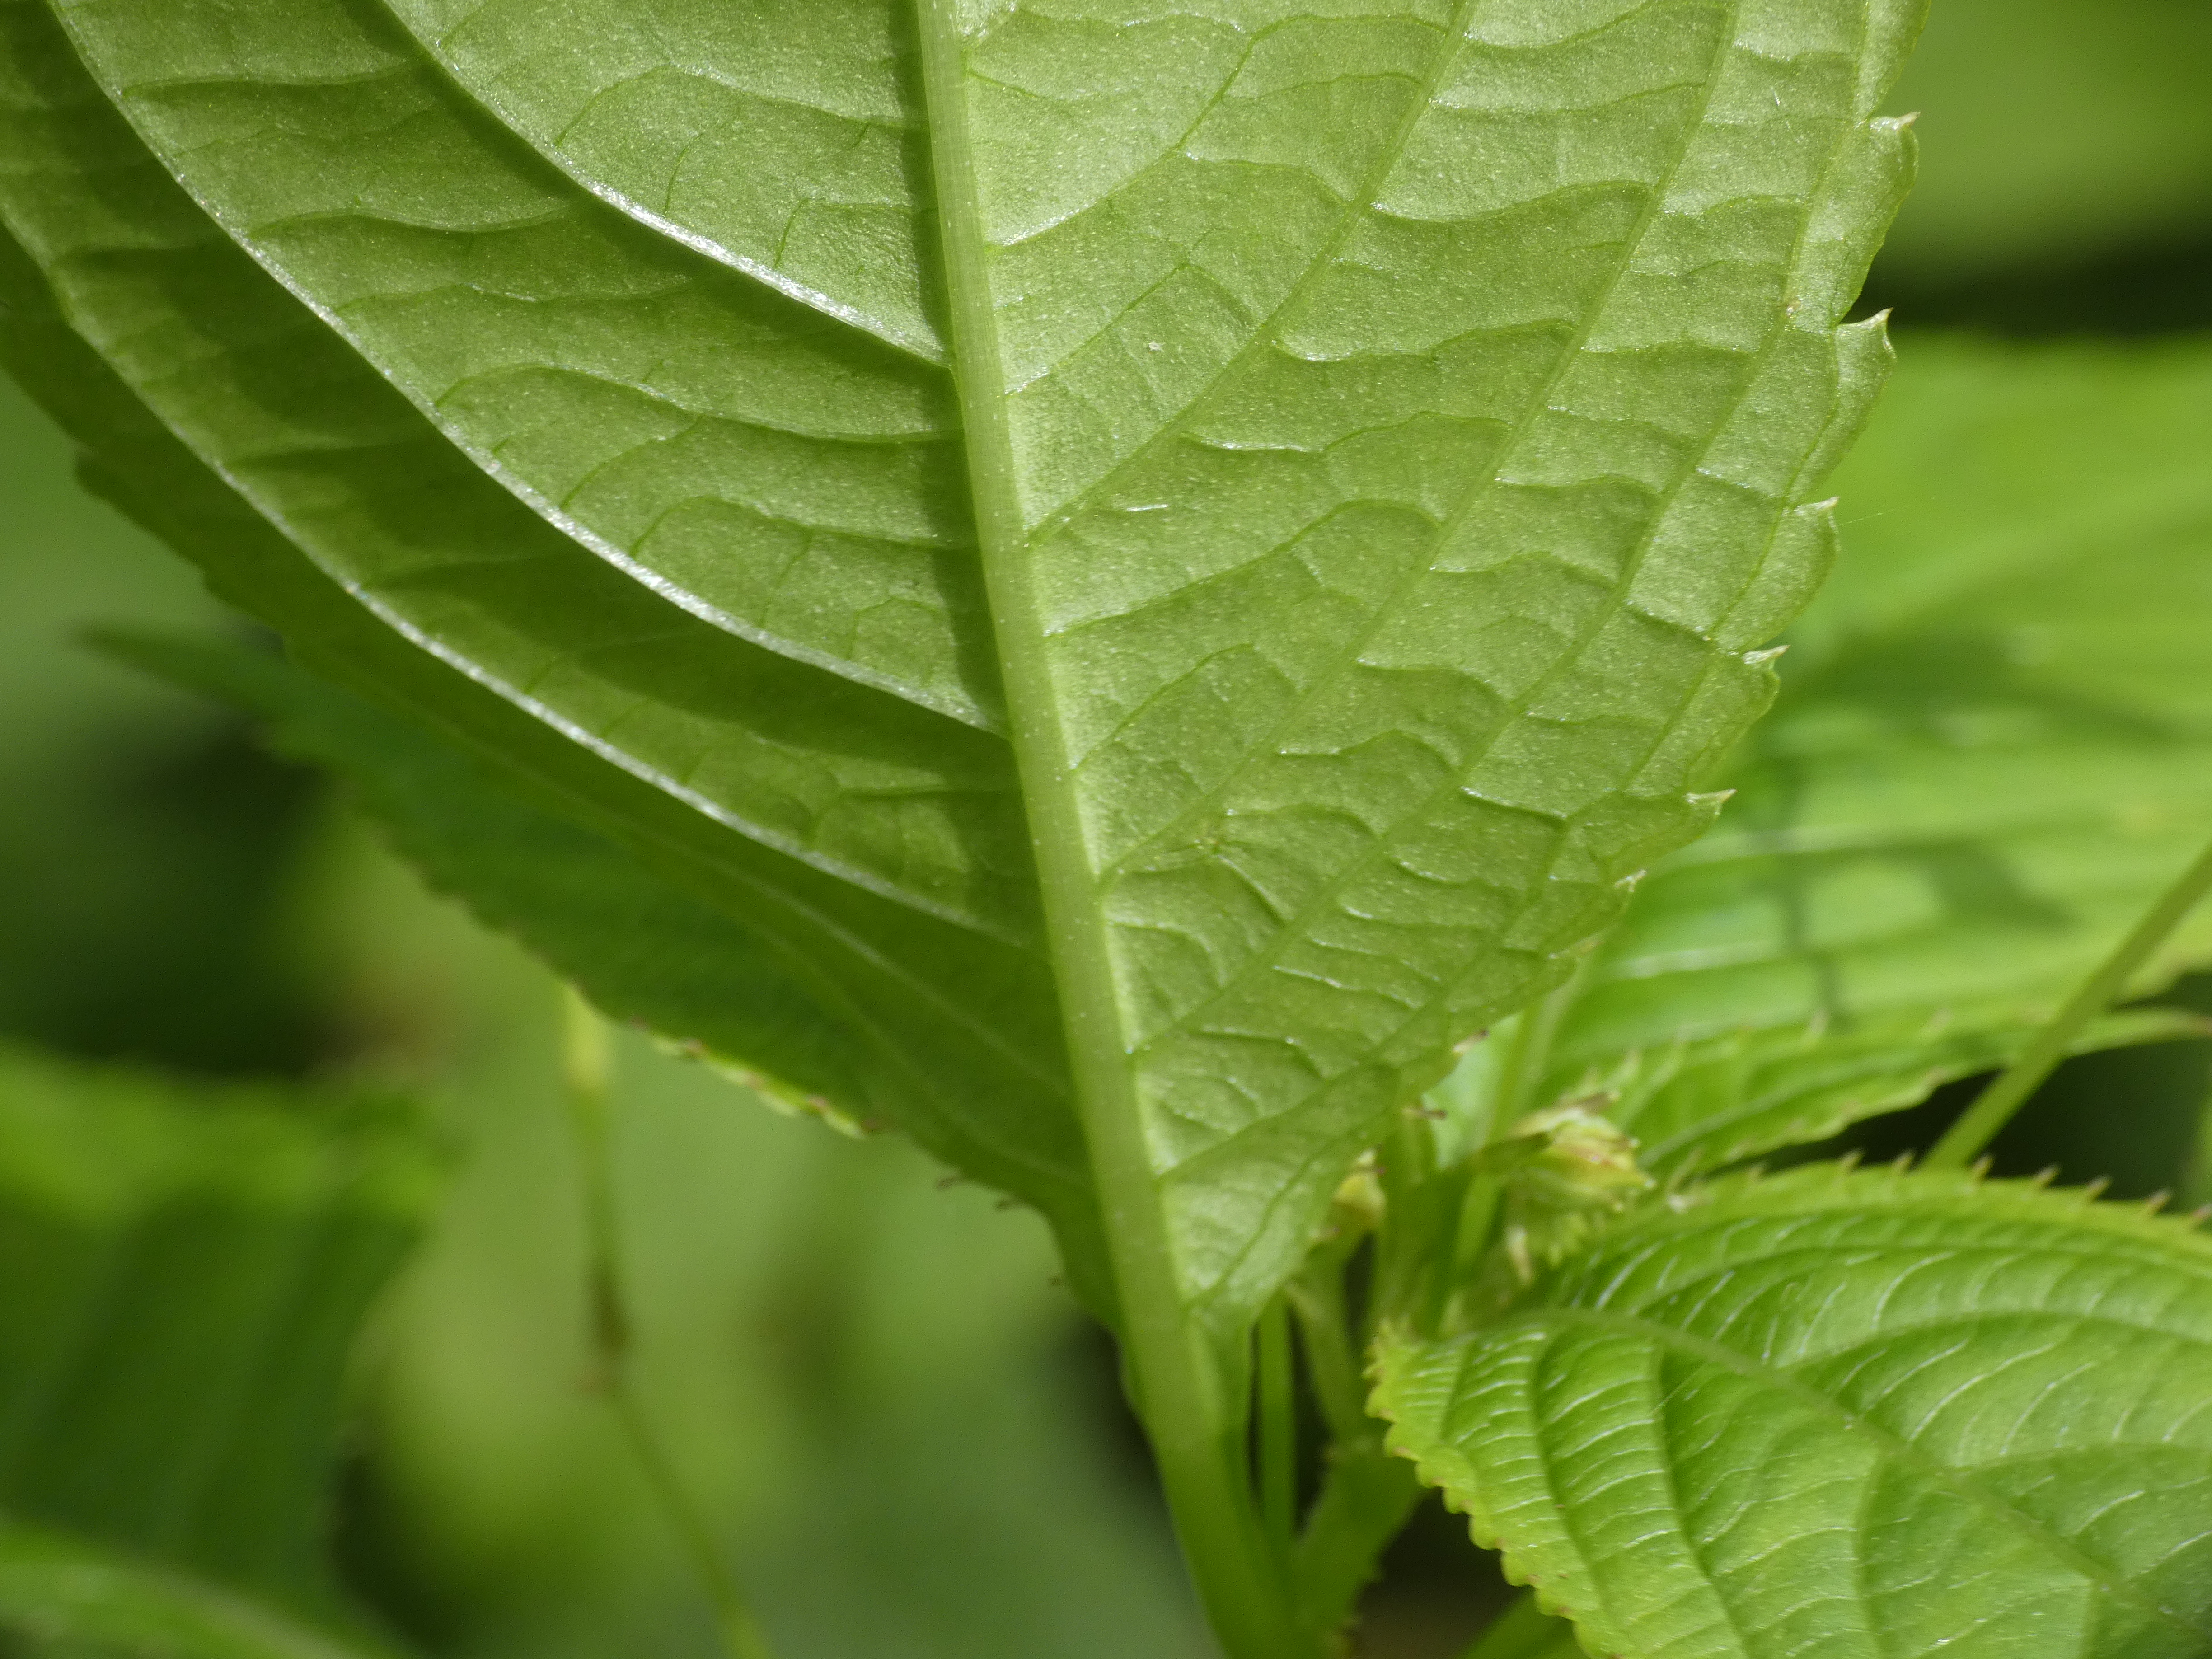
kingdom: Plantae
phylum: Tracheophyta
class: Magnoliopsida
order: Ericales
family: Balsaminaceae
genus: Impatiens
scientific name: Impatiens parviflora
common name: Småblomstret balsamin
